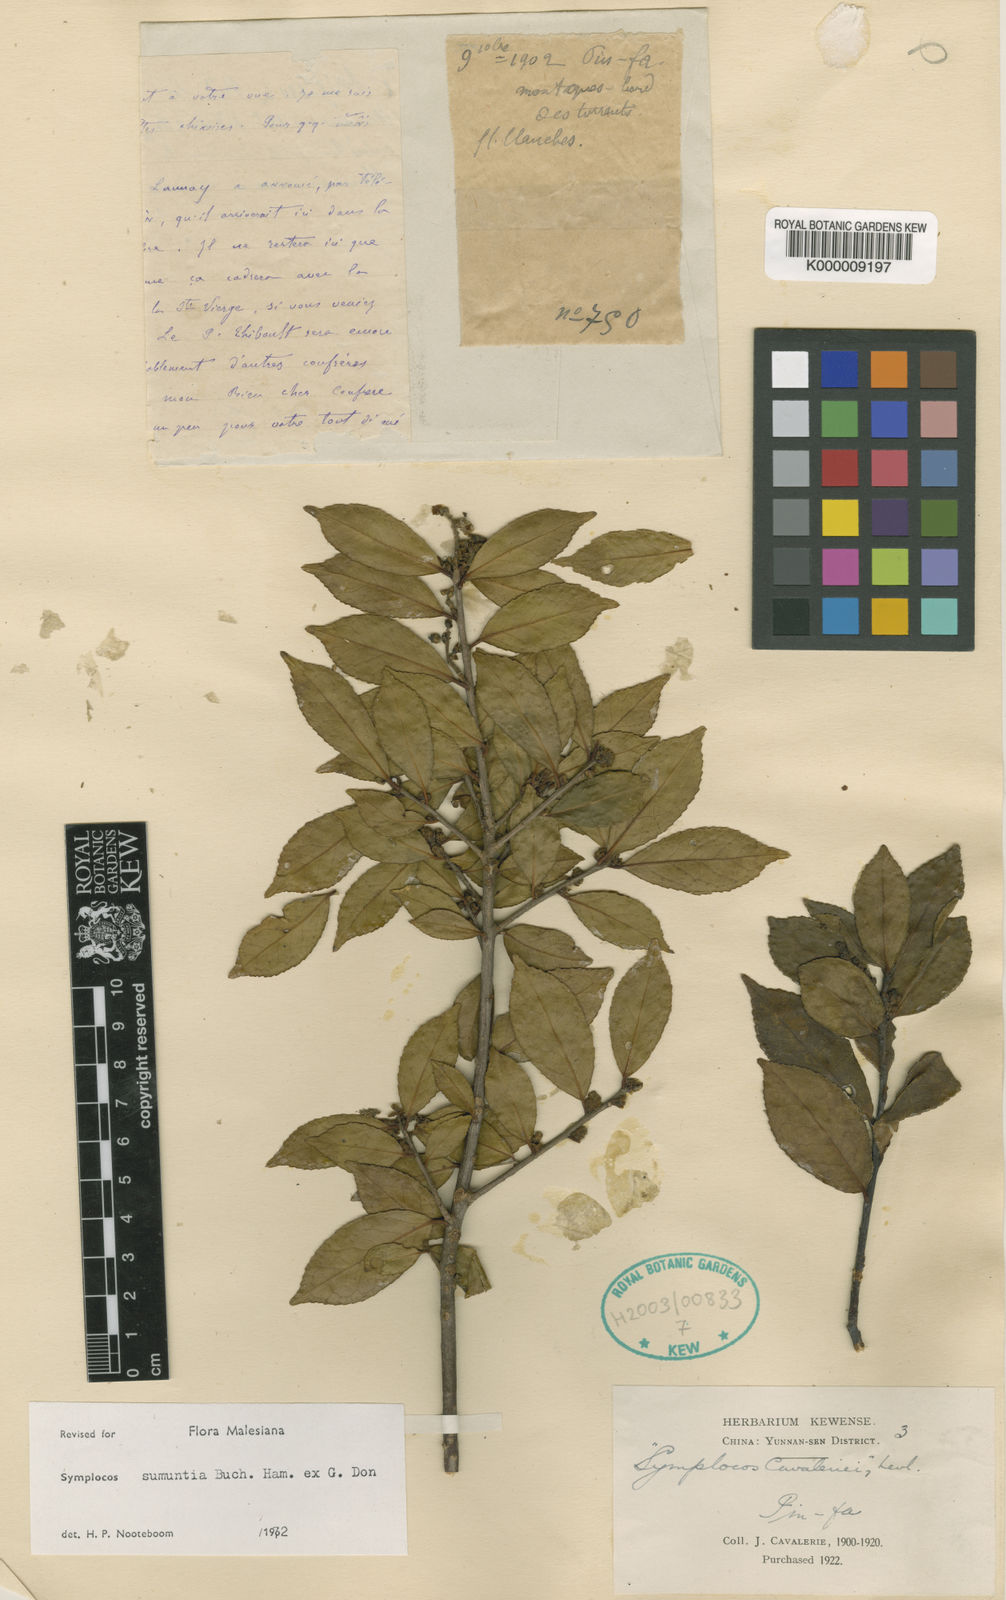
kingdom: Plantae
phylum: Tracheophyta
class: Magnoliopsida
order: Ericales
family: Symplocaceae
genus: Symplocos
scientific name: Symplocos sumuntia
